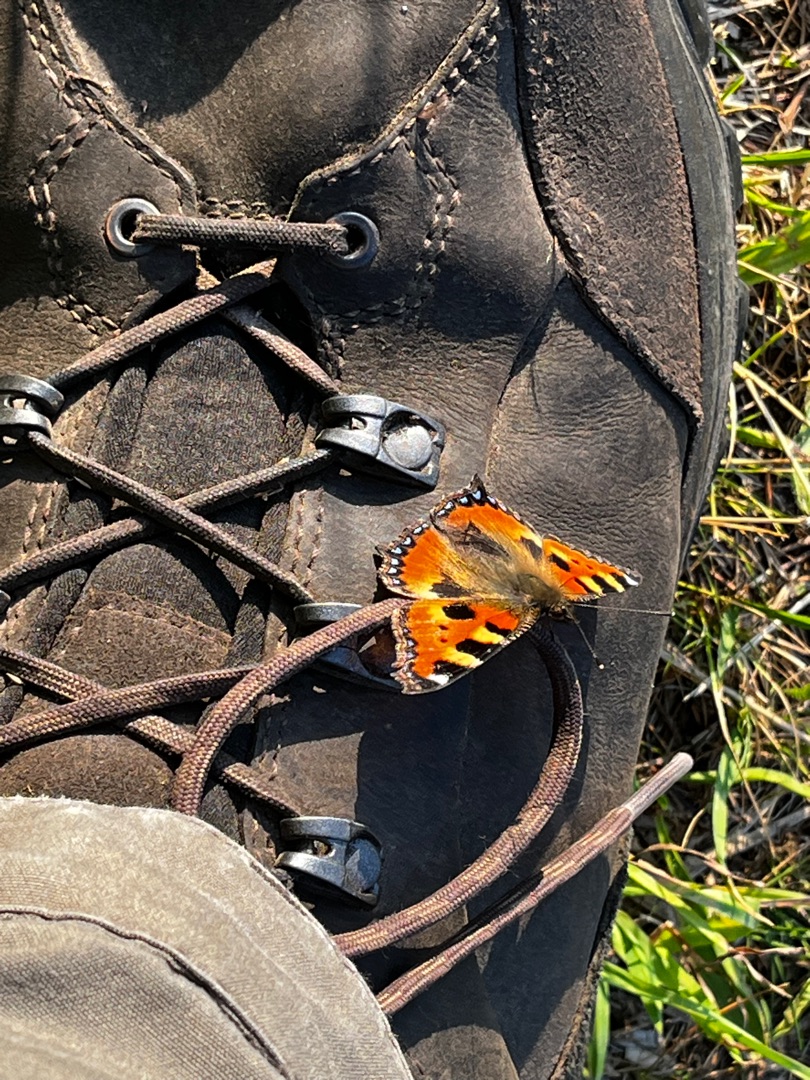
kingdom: Animalia
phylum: Arthropoda
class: Insecta
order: Lepidoptera
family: Nymphalidae
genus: Aglais
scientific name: Aglais urticae
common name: Nældens takvinge
